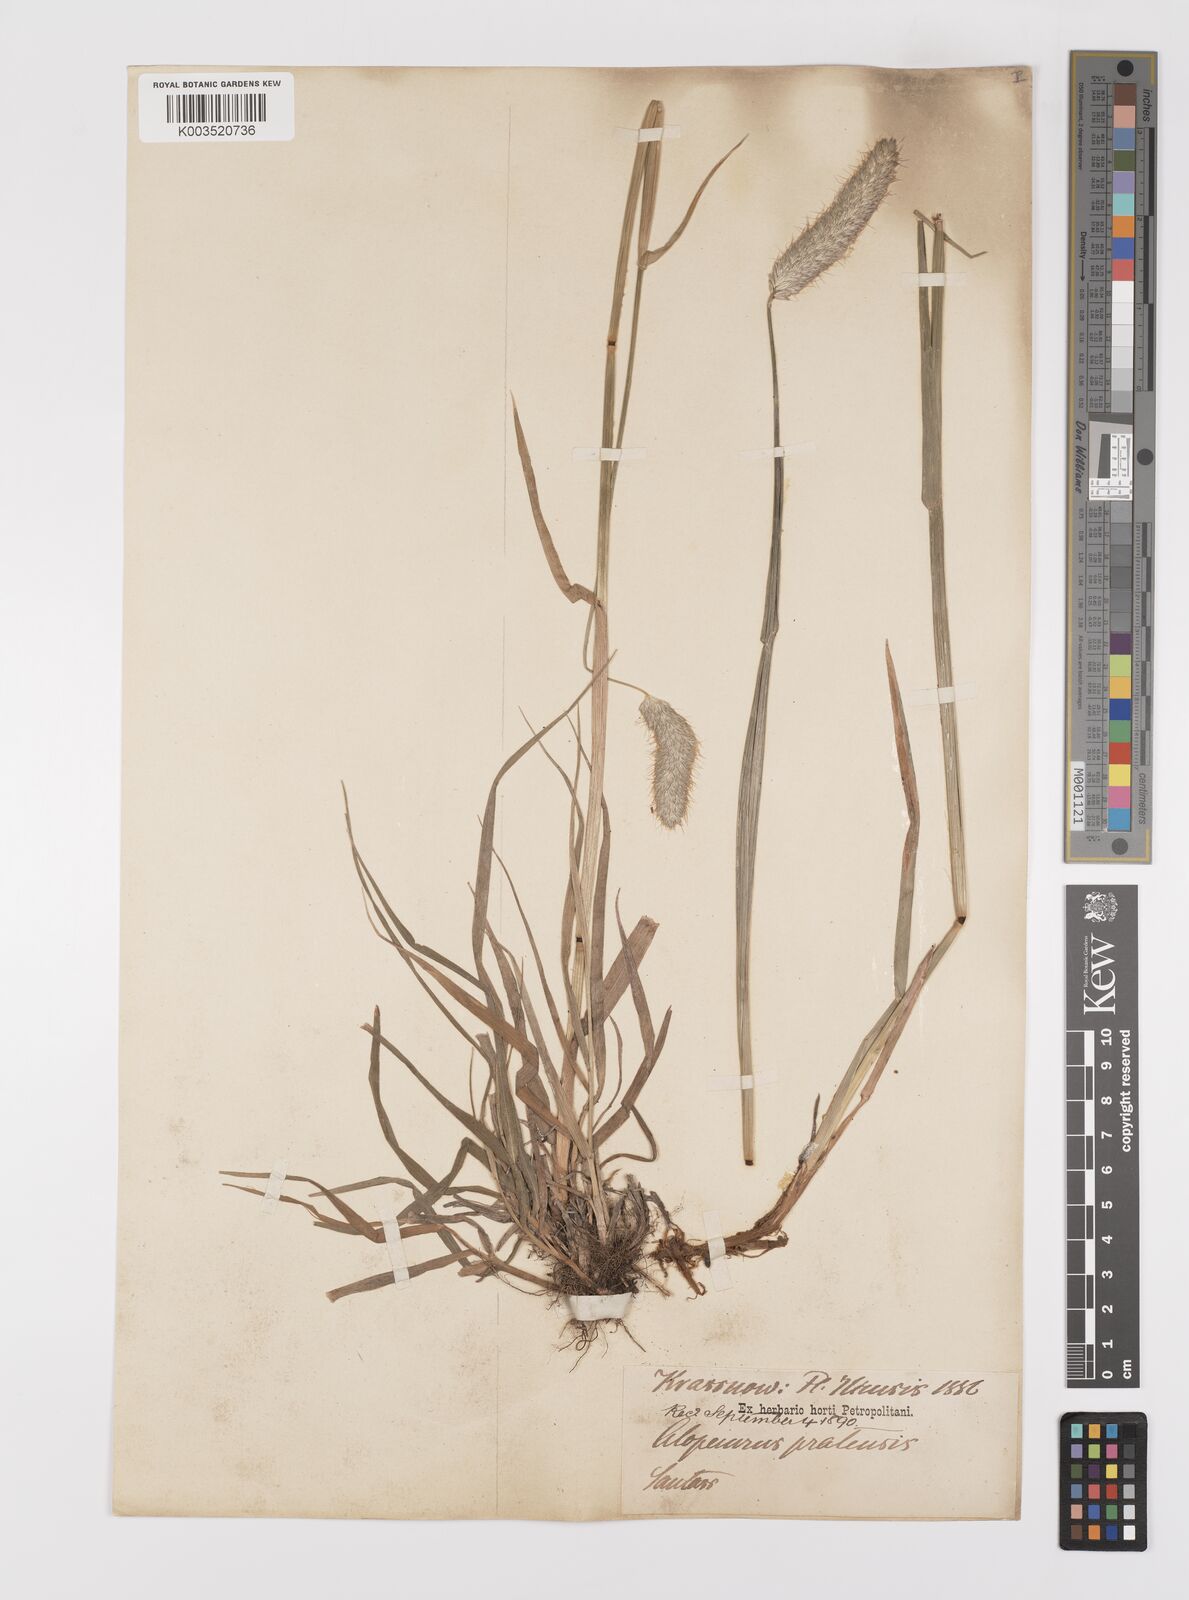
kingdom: Plantae
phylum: Tracheophyta
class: Liliopsida
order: Poales
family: Poaceae
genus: Alopecurus
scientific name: Alopecurus pratensis
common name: Meadow foxtail
